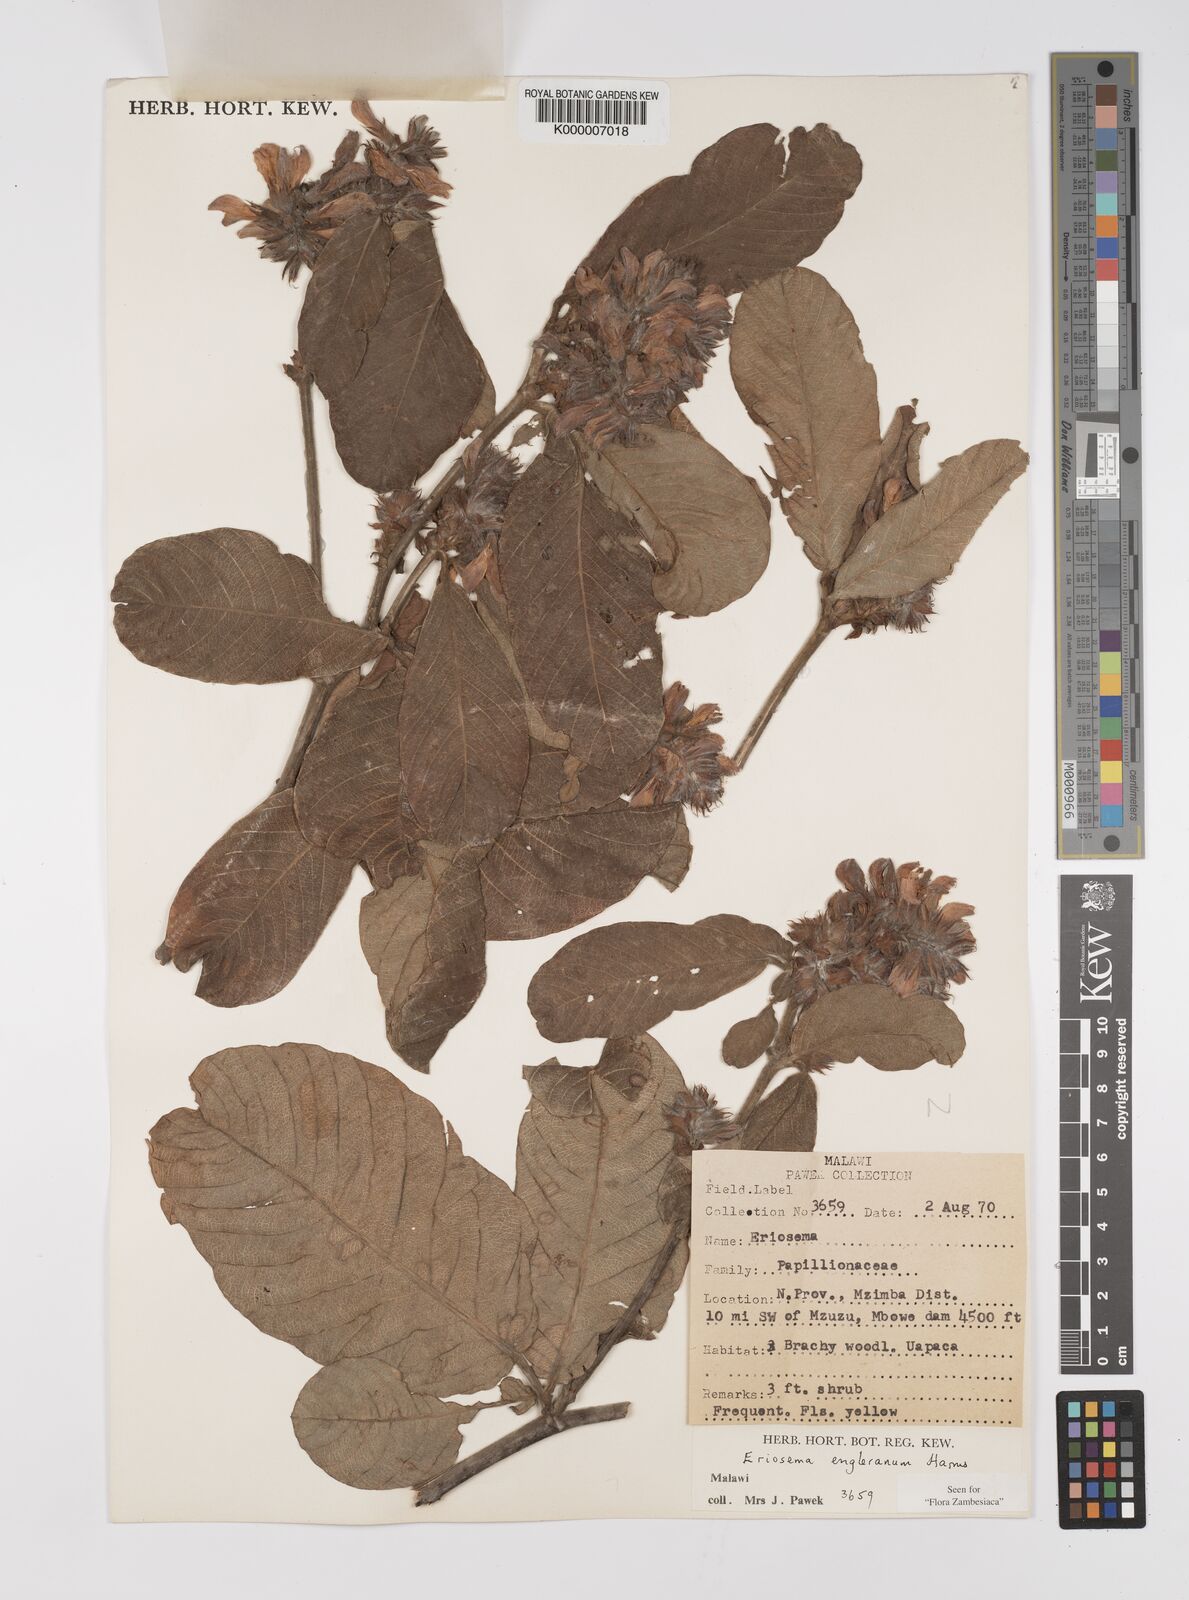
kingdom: Plantae
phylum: Tracheophyta
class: Magnoliopsida
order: Fabales
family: Fabaceae
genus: Eriosema
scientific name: Eriosema englerianum
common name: Blue bush
